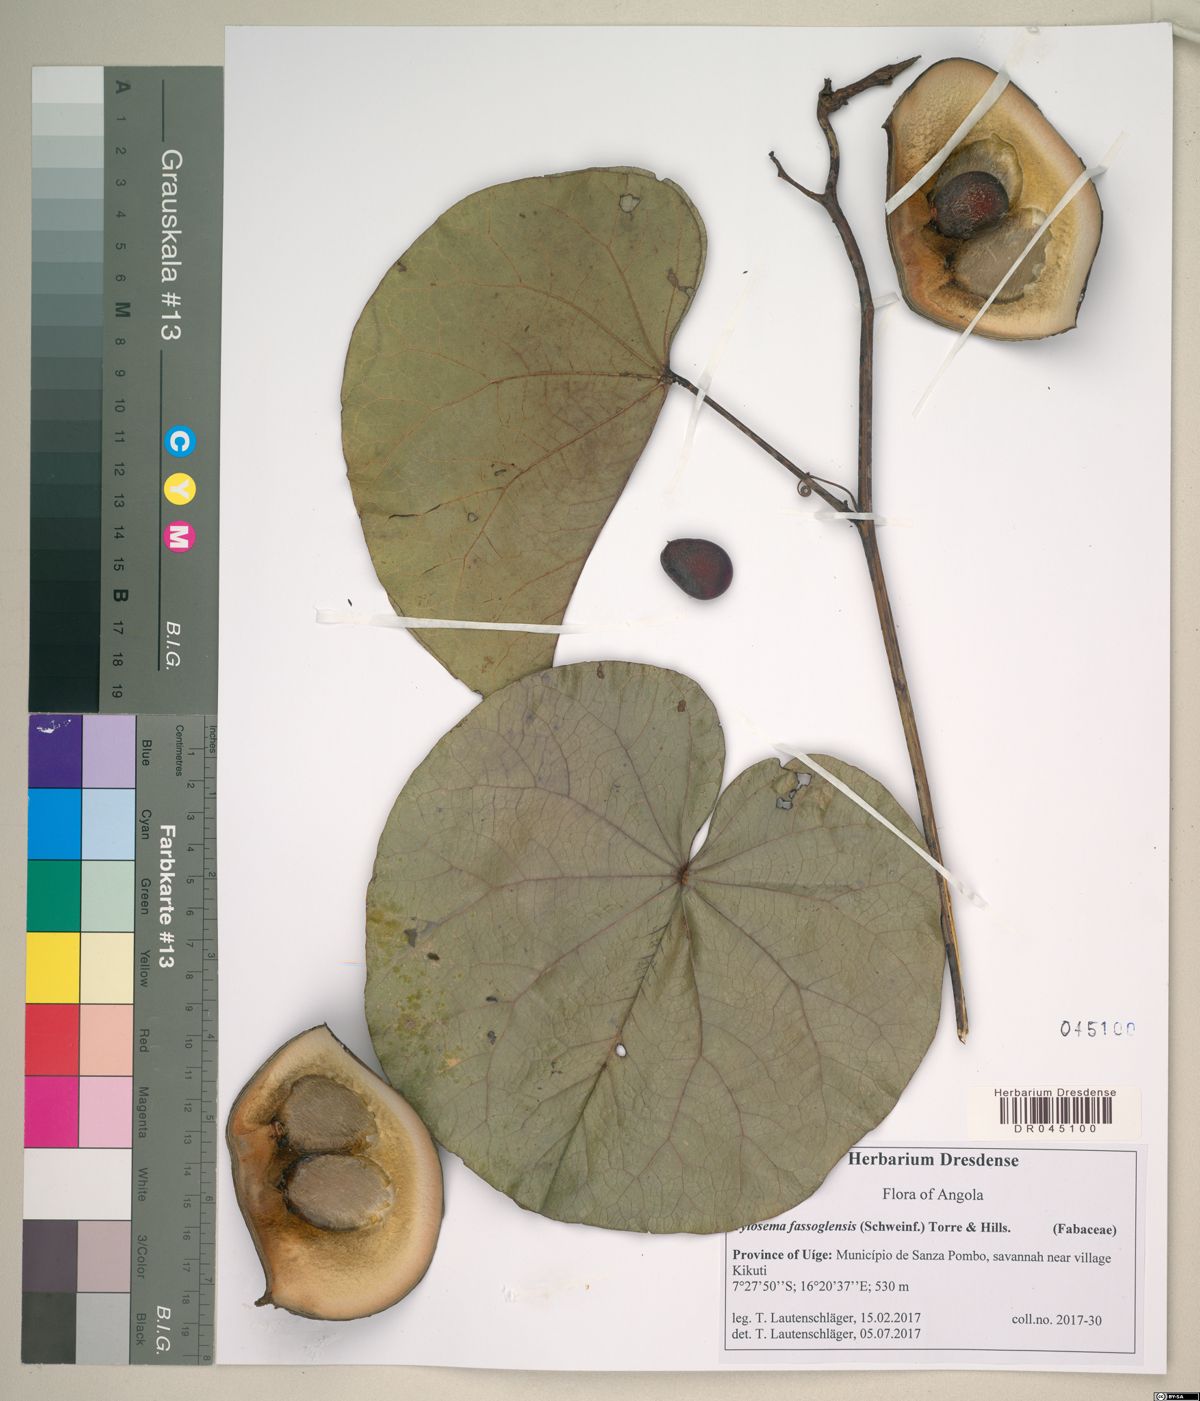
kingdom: Plantae
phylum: Tracheophyta
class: Magnoliopsida
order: Fabales
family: Fabaceae
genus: Tylosema
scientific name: Tylosema fassoglense
